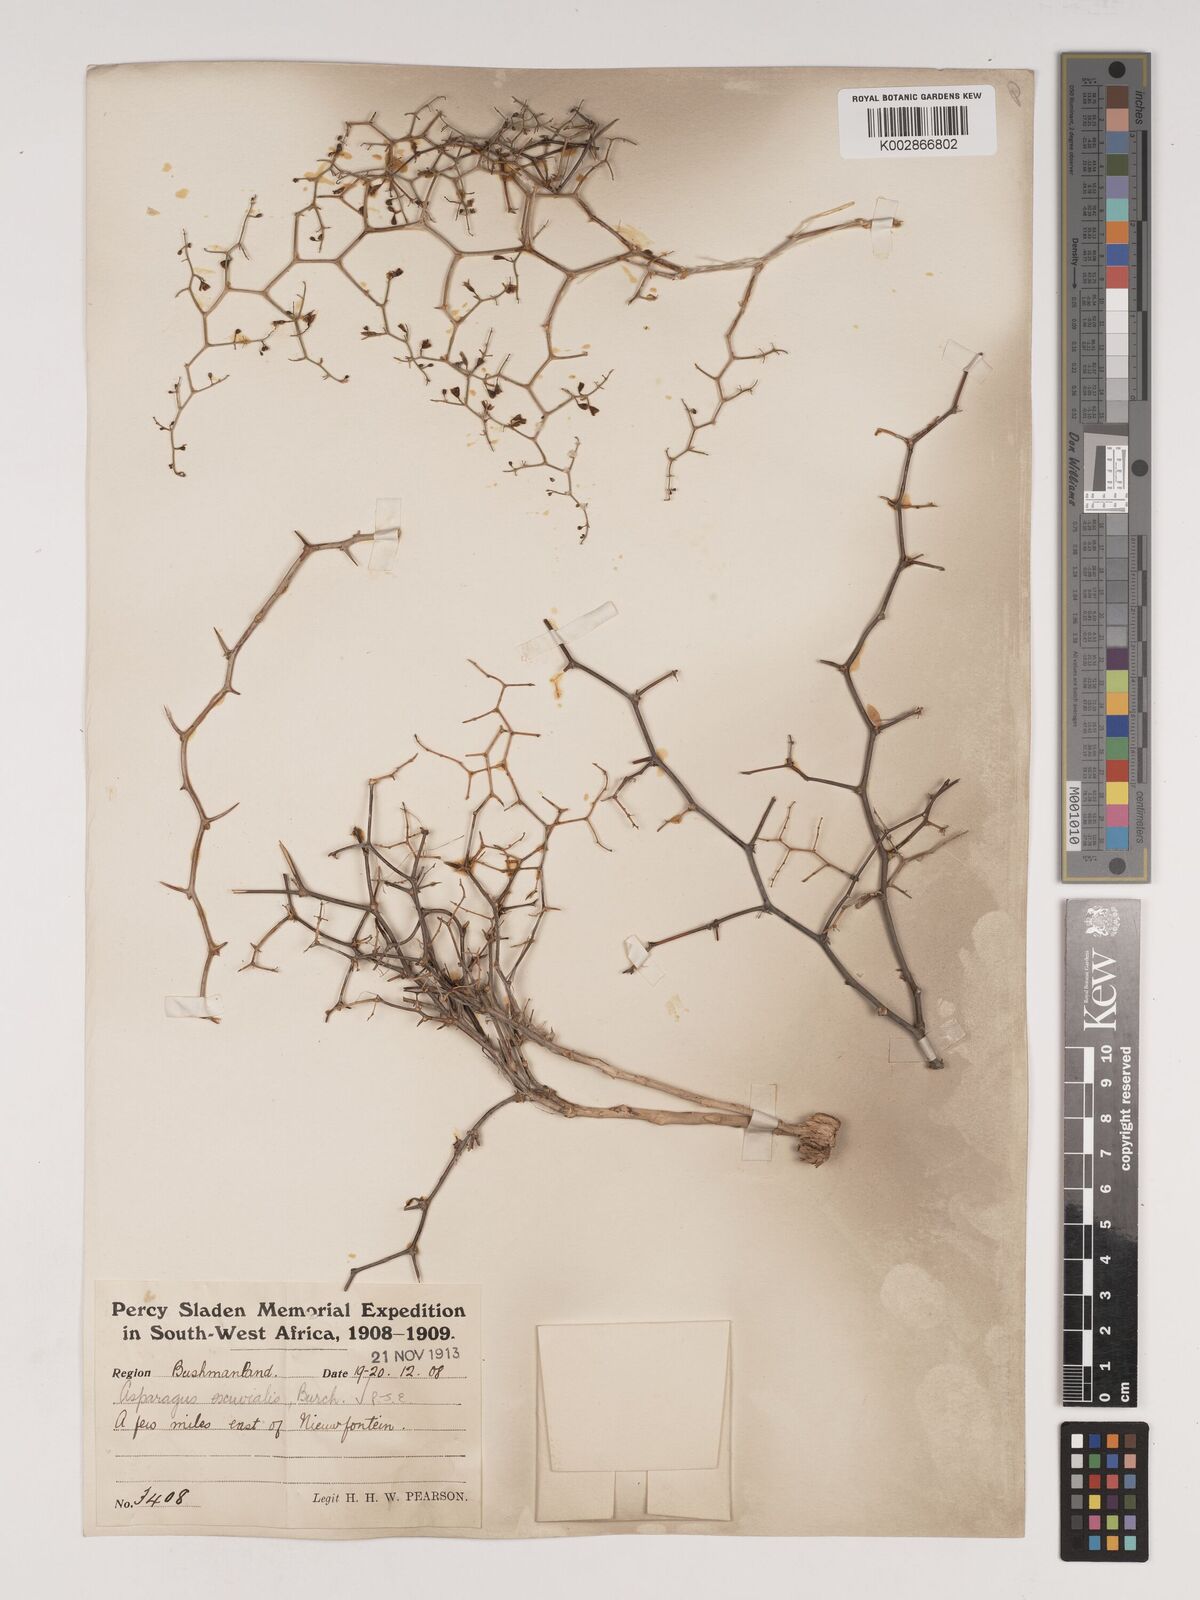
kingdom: Plantae
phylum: Tracheophyta
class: Liliopsida
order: Asparagales
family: Asparagaceae
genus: Asparagus
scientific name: Asparagus exuvialis
